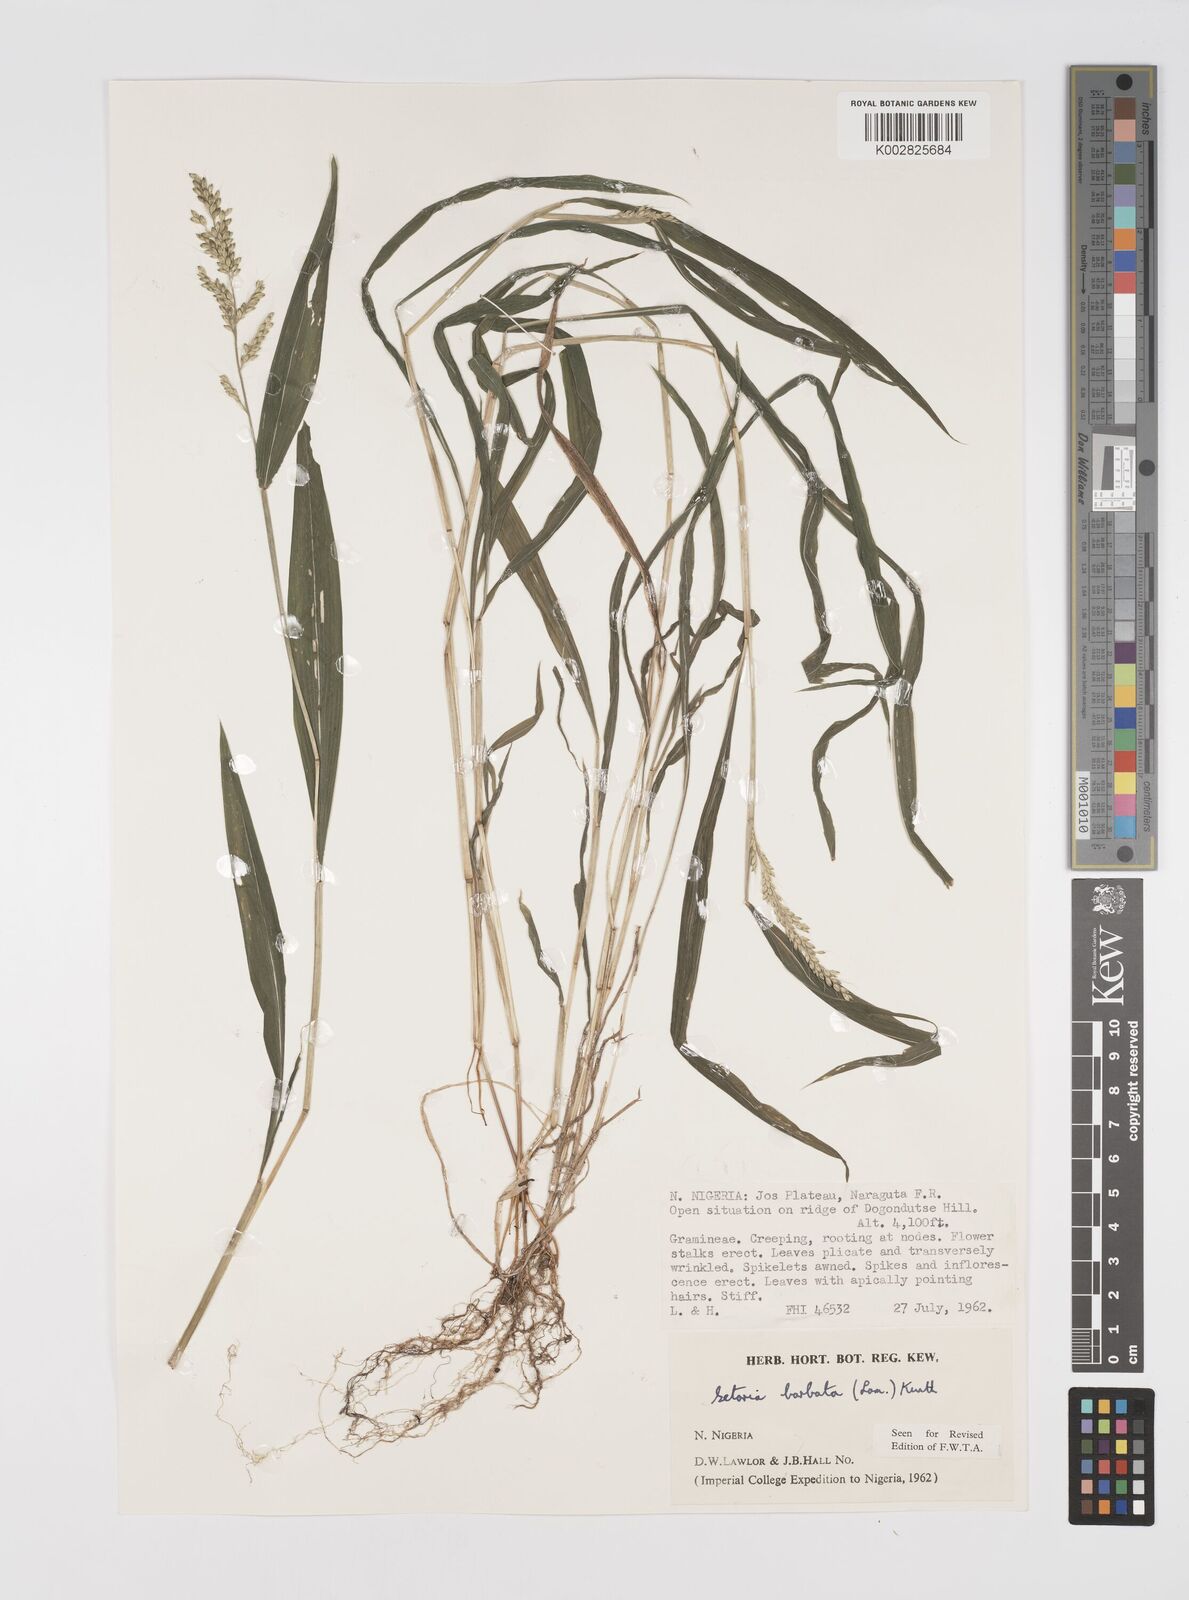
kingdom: Plantae
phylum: Tracheophyta
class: Liliopsida
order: Poales
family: Poaceae
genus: Setaria
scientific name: Setaria barbata
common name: East indian bristlegrass
